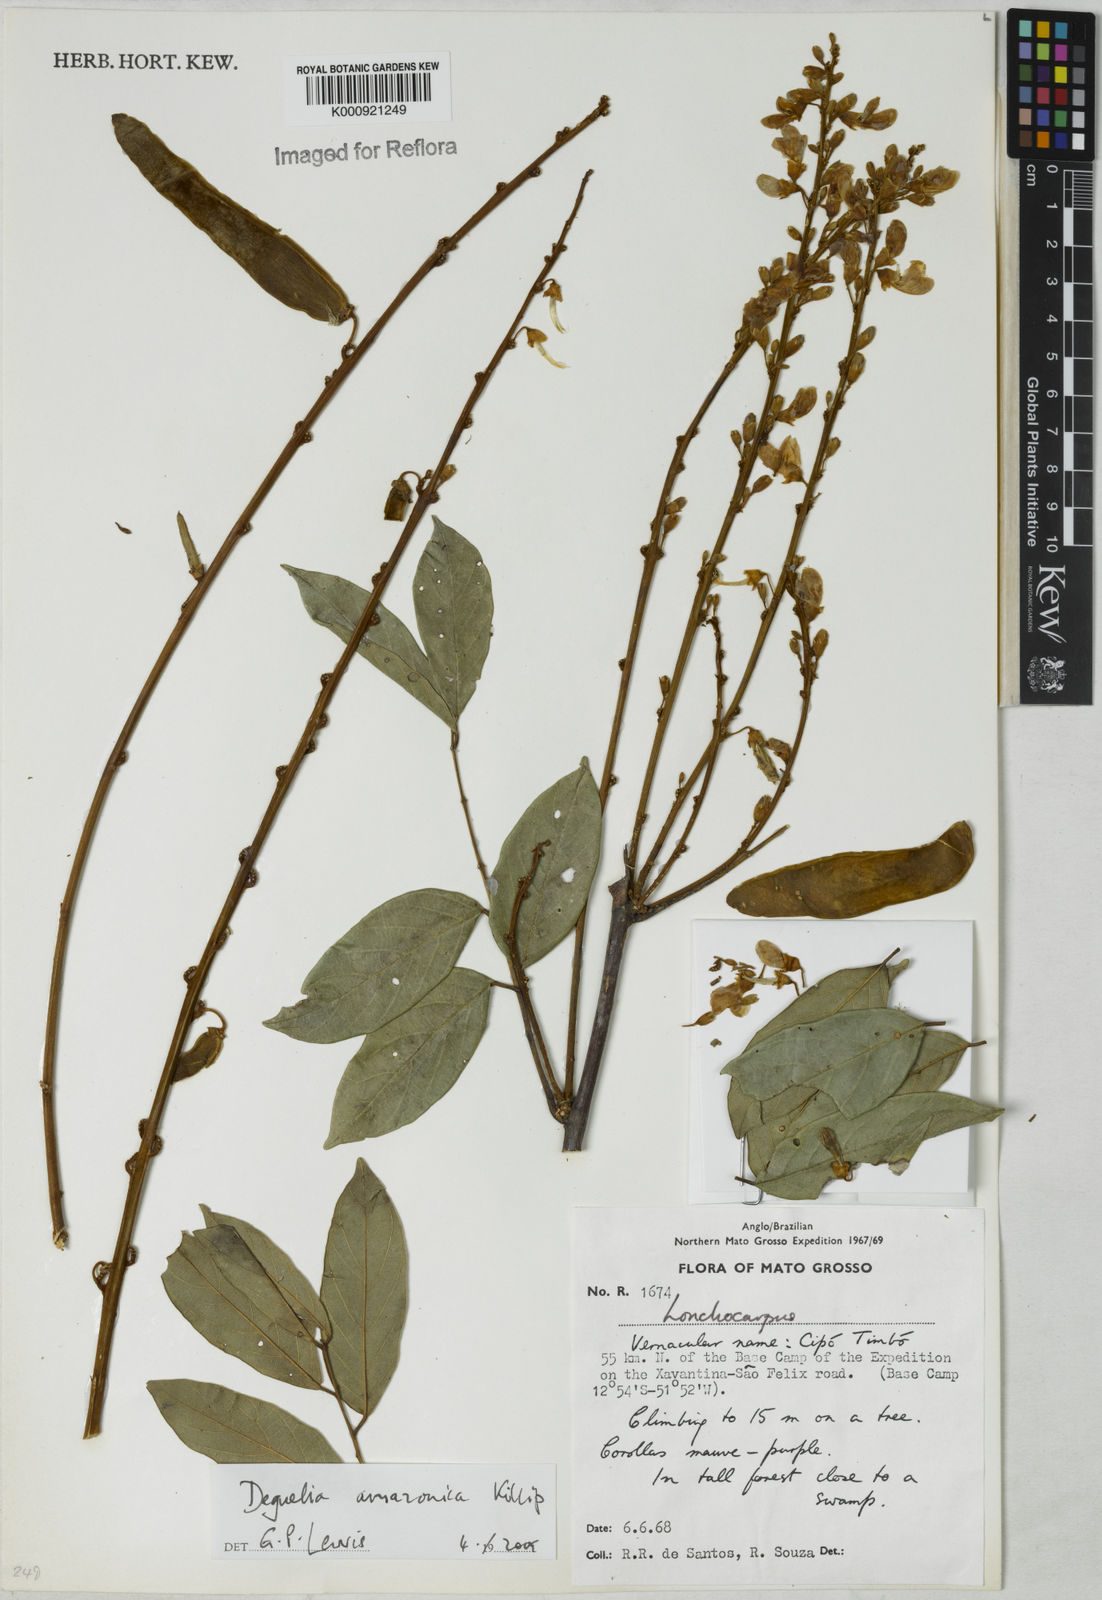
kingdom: Plantae
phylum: Tracheophyta
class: Magnoliopsida
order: Fabales
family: Fabaceae
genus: Deguelia
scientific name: Deguelia amazonica
